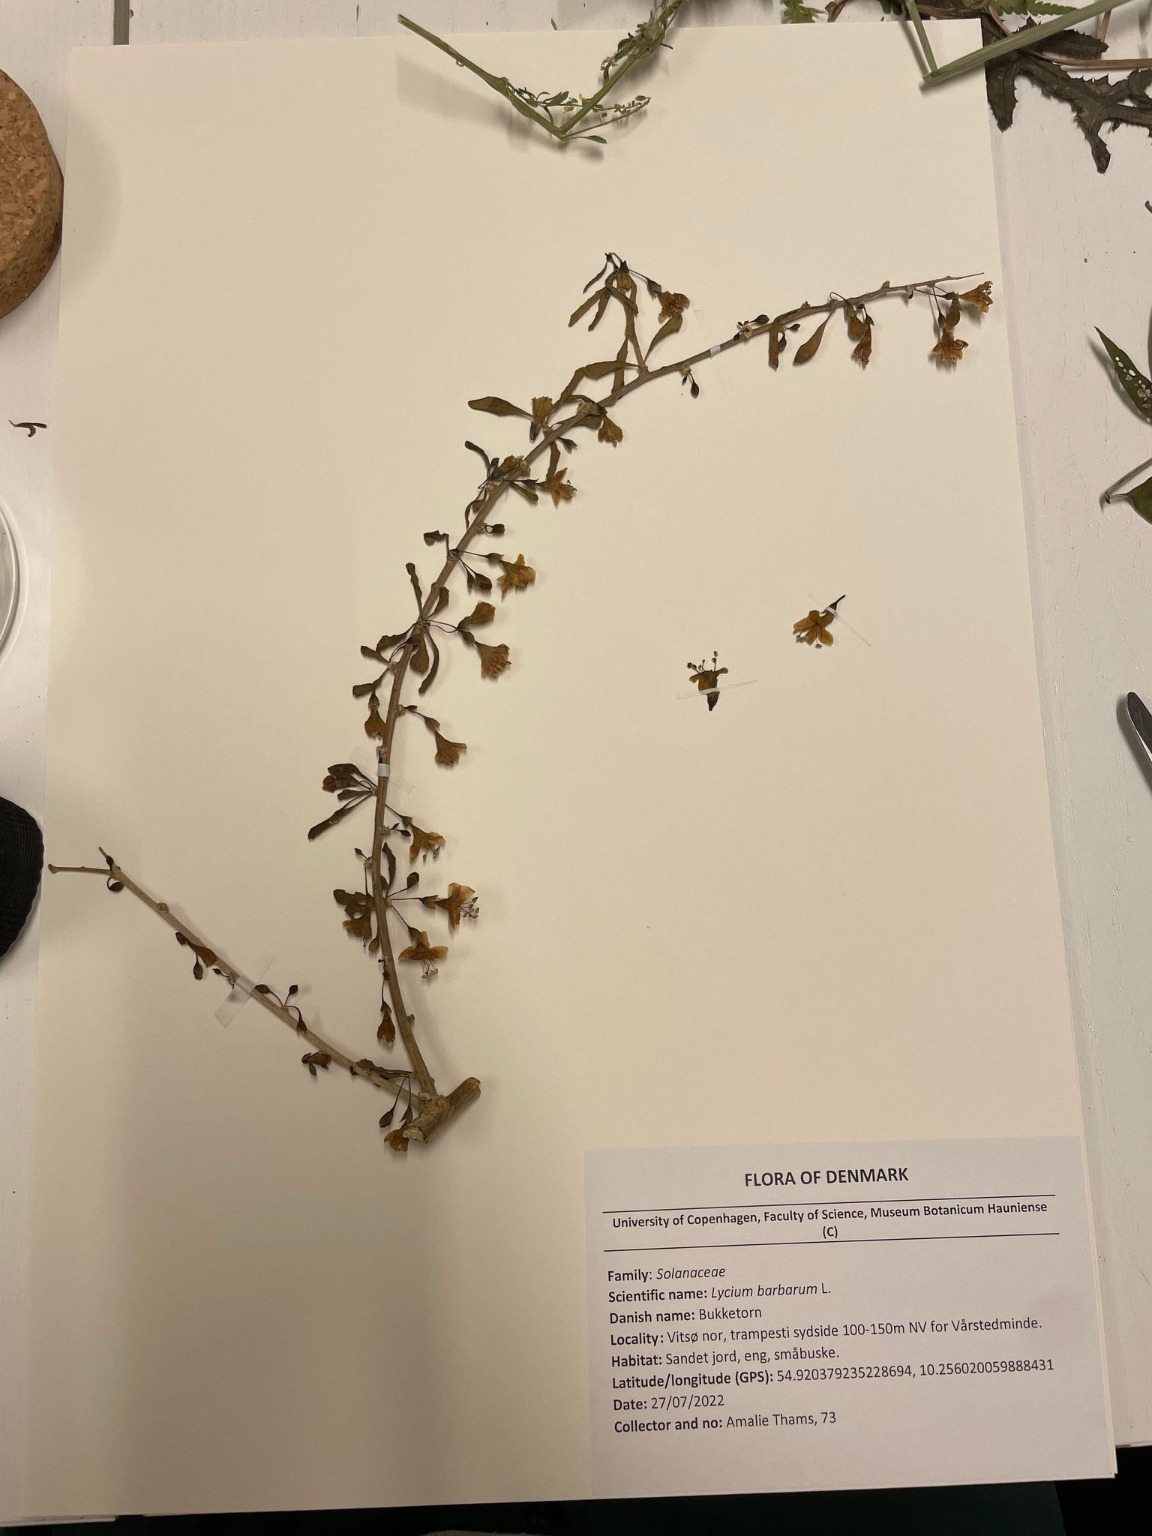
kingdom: Plantae
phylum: Tracheophyta
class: Magnoliopsida
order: Solanales
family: Solanaceae
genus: Lycium
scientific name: Lycium barbarum
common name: Bukketorn
